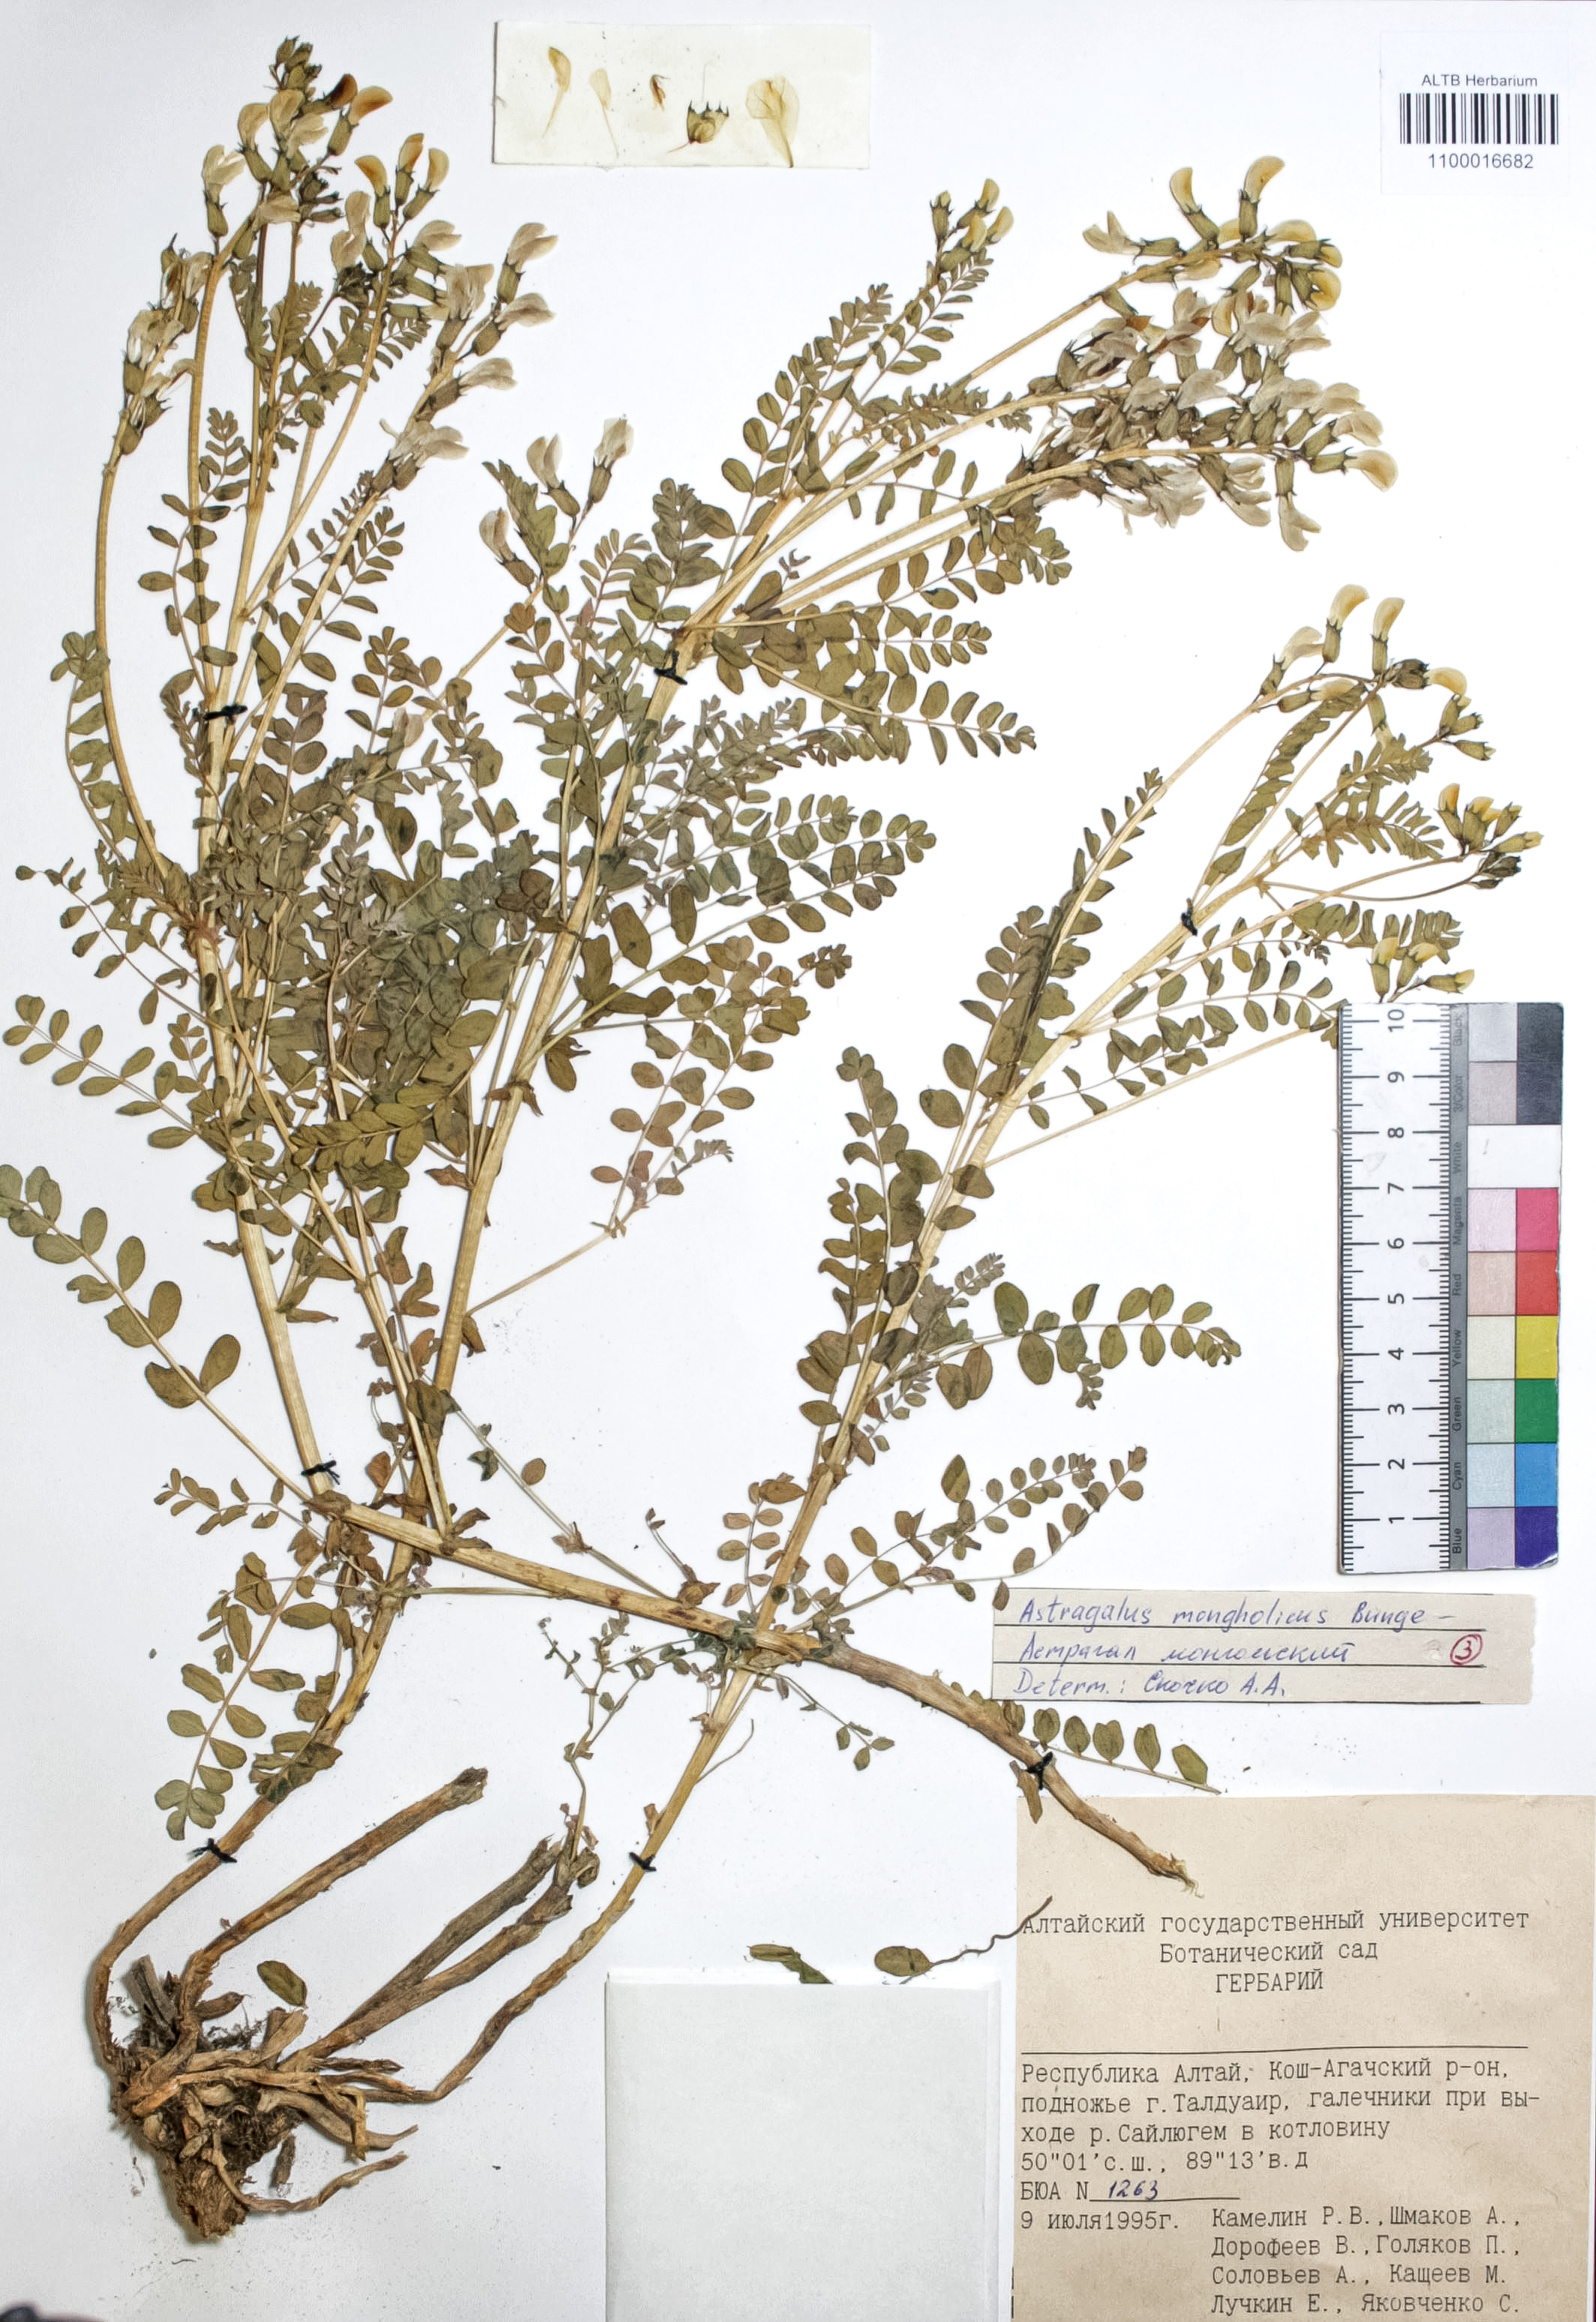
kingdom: Plantae
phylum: Tracheophyta
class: Magnoliopsida
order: Fabales
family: Fabaceae
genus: Astragalus
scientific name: Astragalus mongolicus
